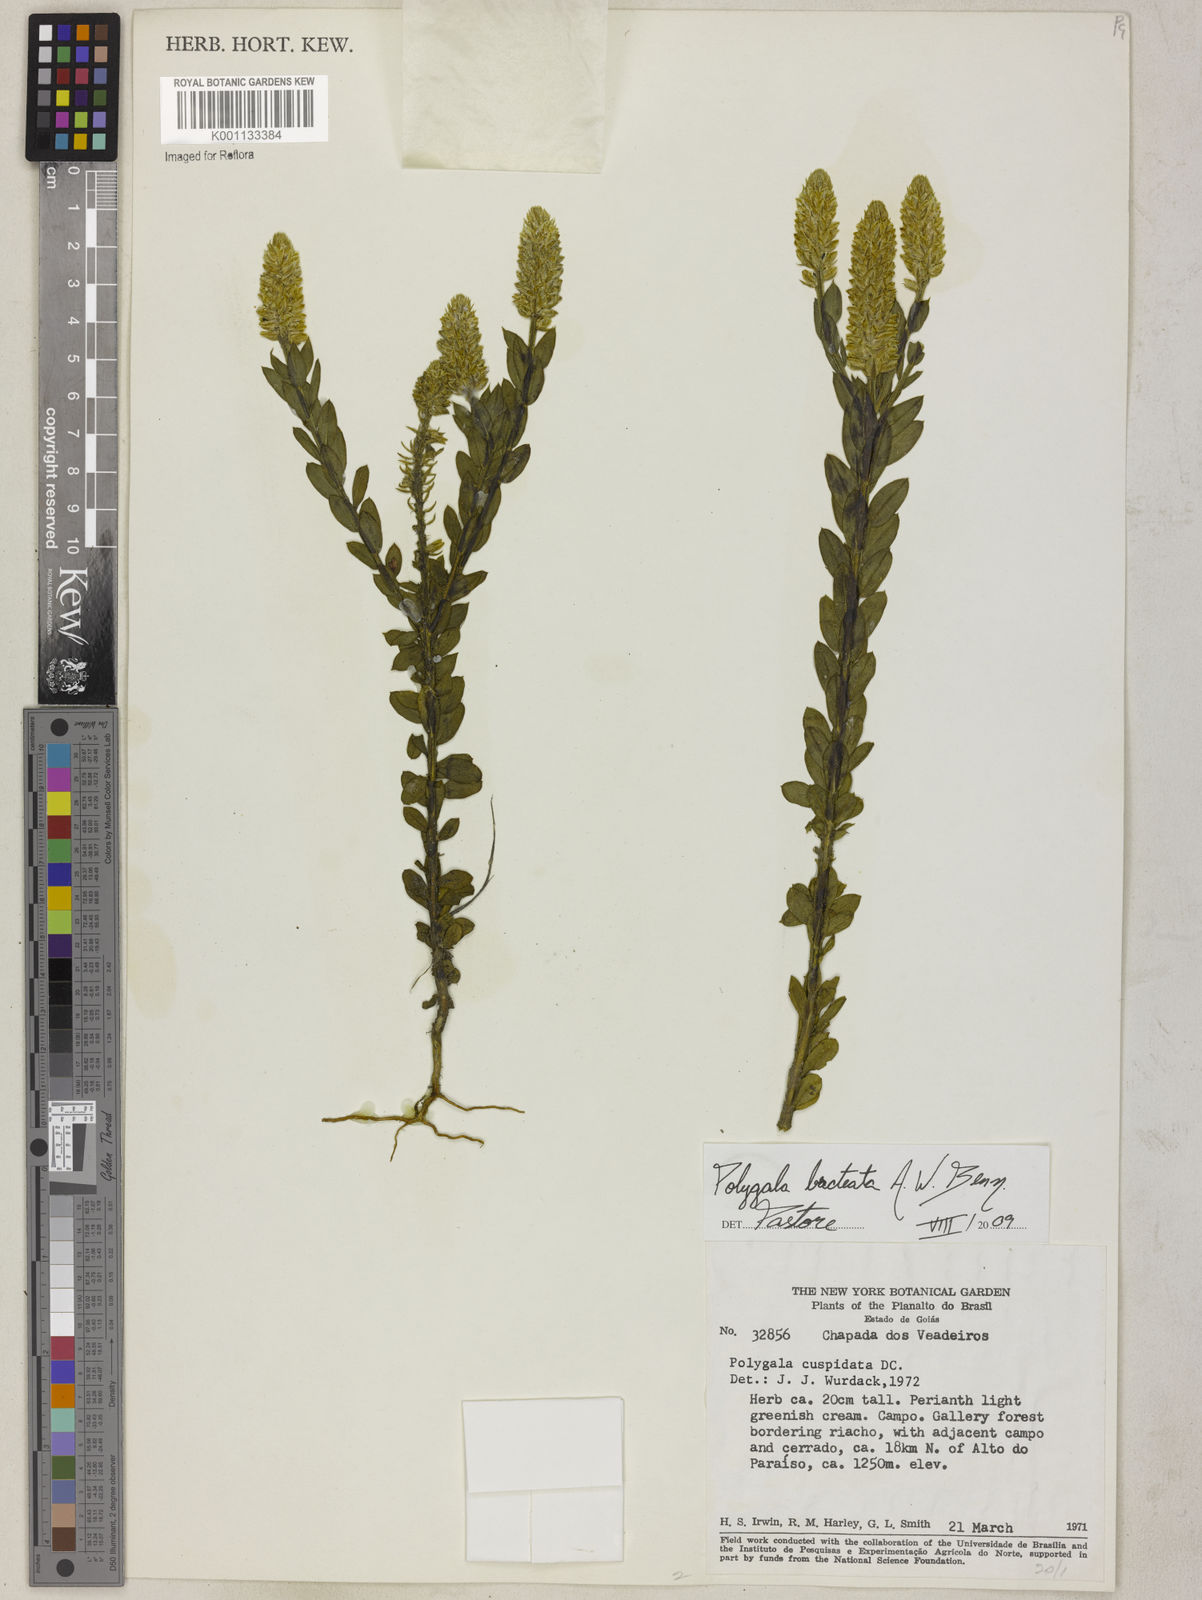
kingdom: Plantae
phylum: Tracheophyta
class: Magnoliopsida
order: Fabales
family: Polygalaceae
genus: Polygala
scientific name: Polygala bracteata
